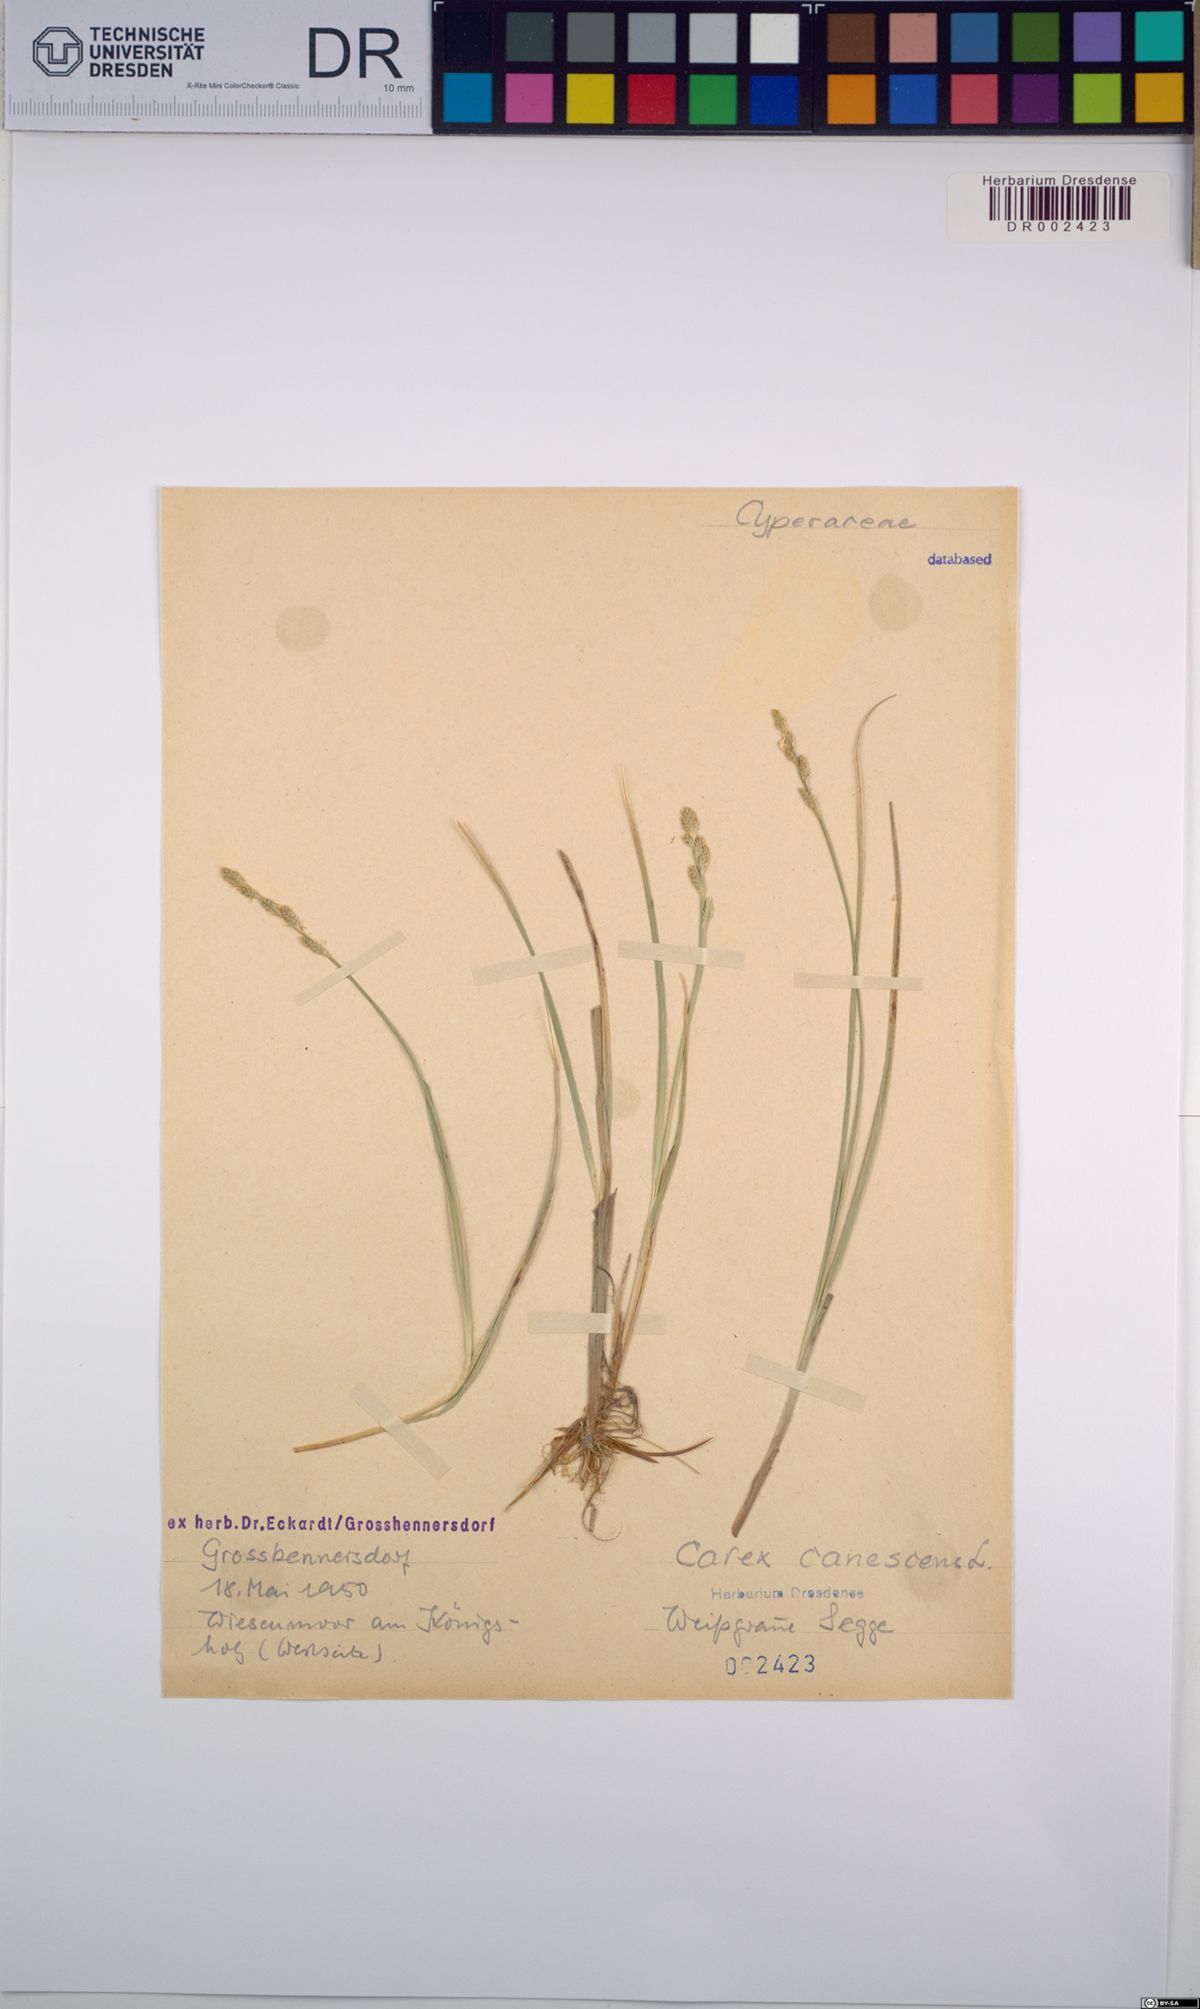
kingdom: Plantae
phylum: Tracheophyta
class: Liliopsida
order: Poales
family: Cyperaceae
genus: Carex
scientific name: Carex canescens
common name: White sedge
